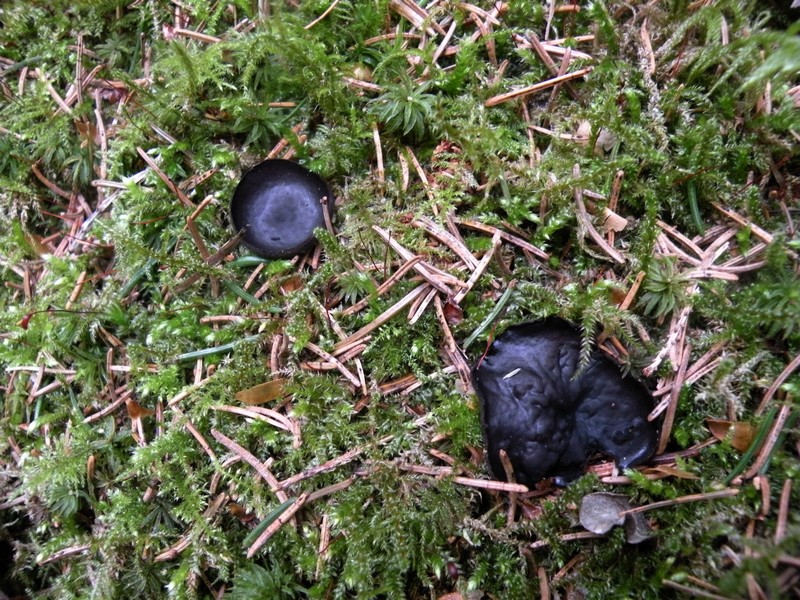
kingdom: Fungi
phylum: Ascomycota
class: Pezizomycetes
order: Pezizales
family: Sarcosomataceae
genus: Pseudoplectania
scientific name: Pseudoplectania nigrella
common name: almindelig sortbæger
